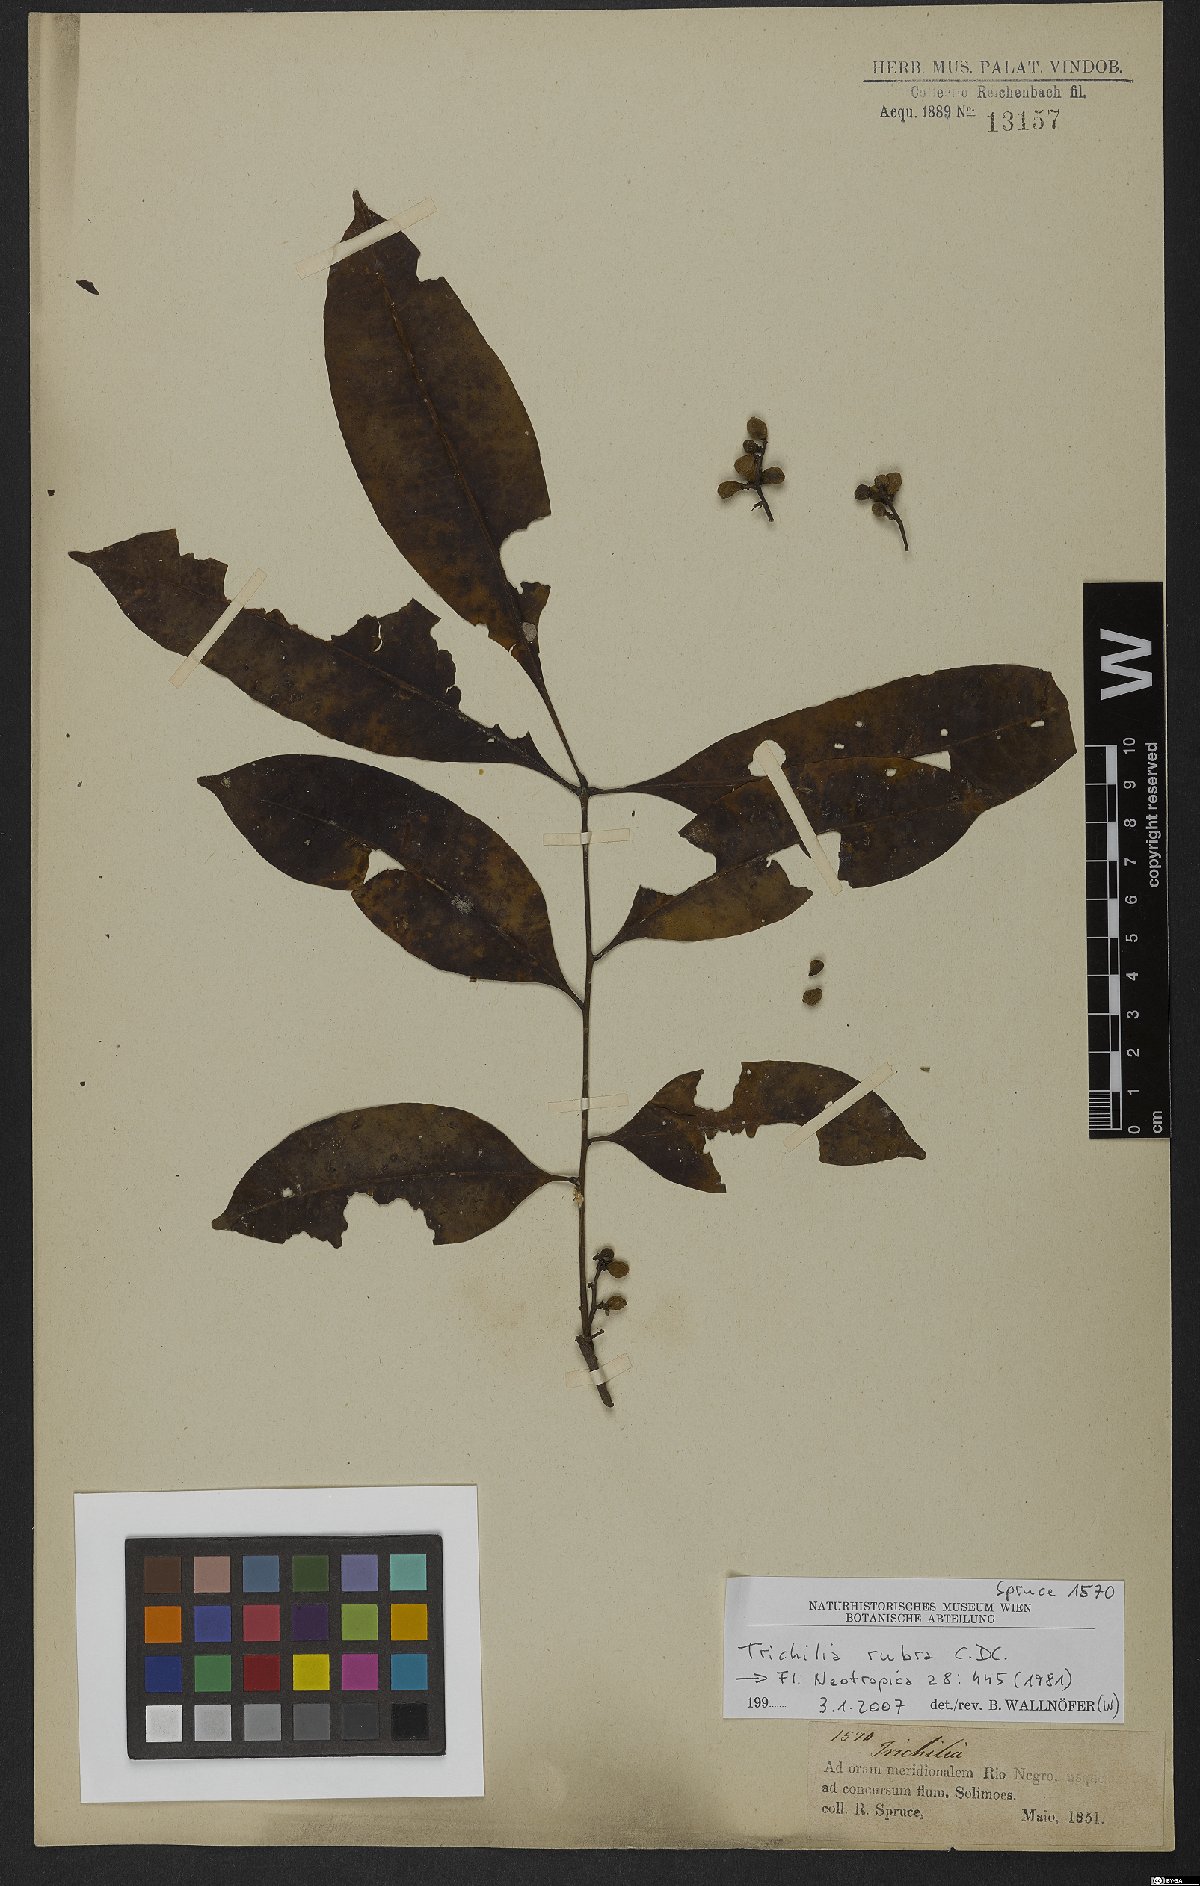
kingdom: Plantae
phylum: Tracheophyta
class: Magnoliopsida
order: Sapindales
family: Meliaceae
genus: Trichilia
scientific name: Trichilia rubra
